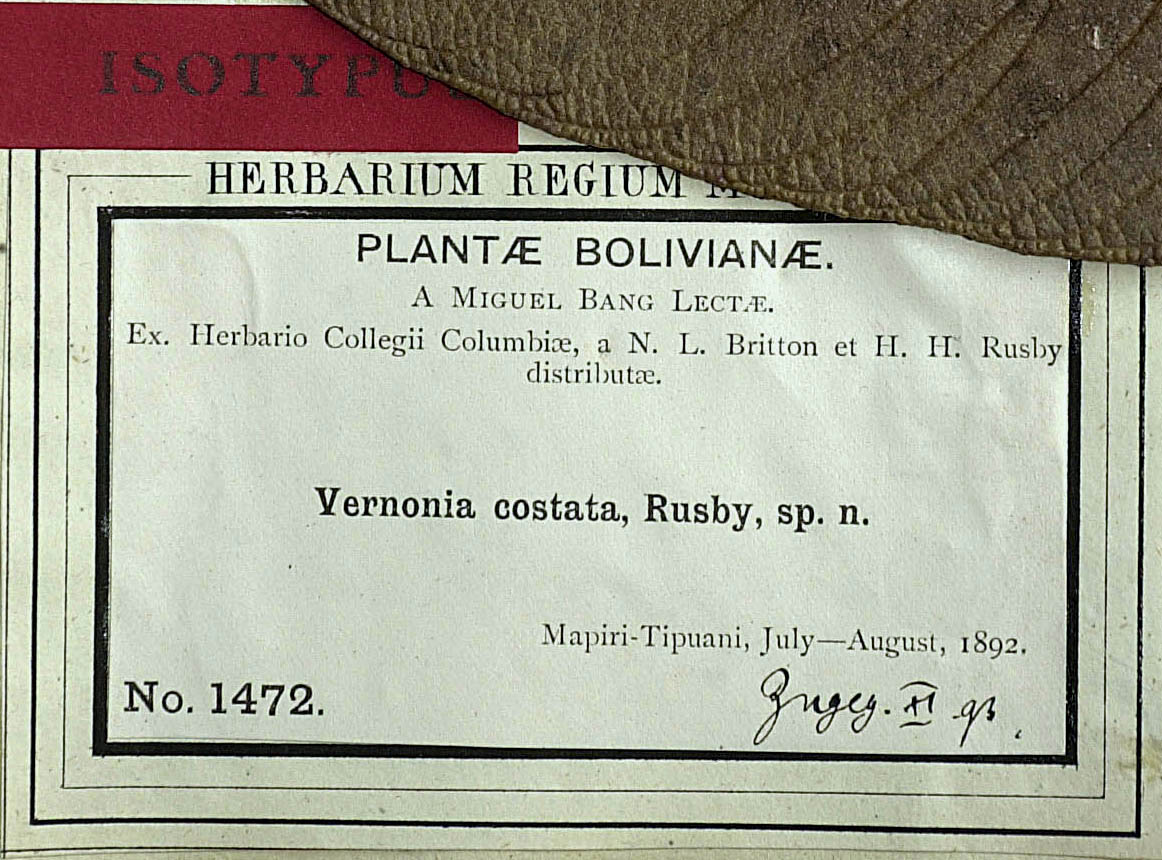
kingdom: Plantae
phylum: Tracheophyta
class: Magnoliopsida
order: Asterales
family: Asteraceae
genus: Lepidaploa
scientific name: Lepidaploa costata
